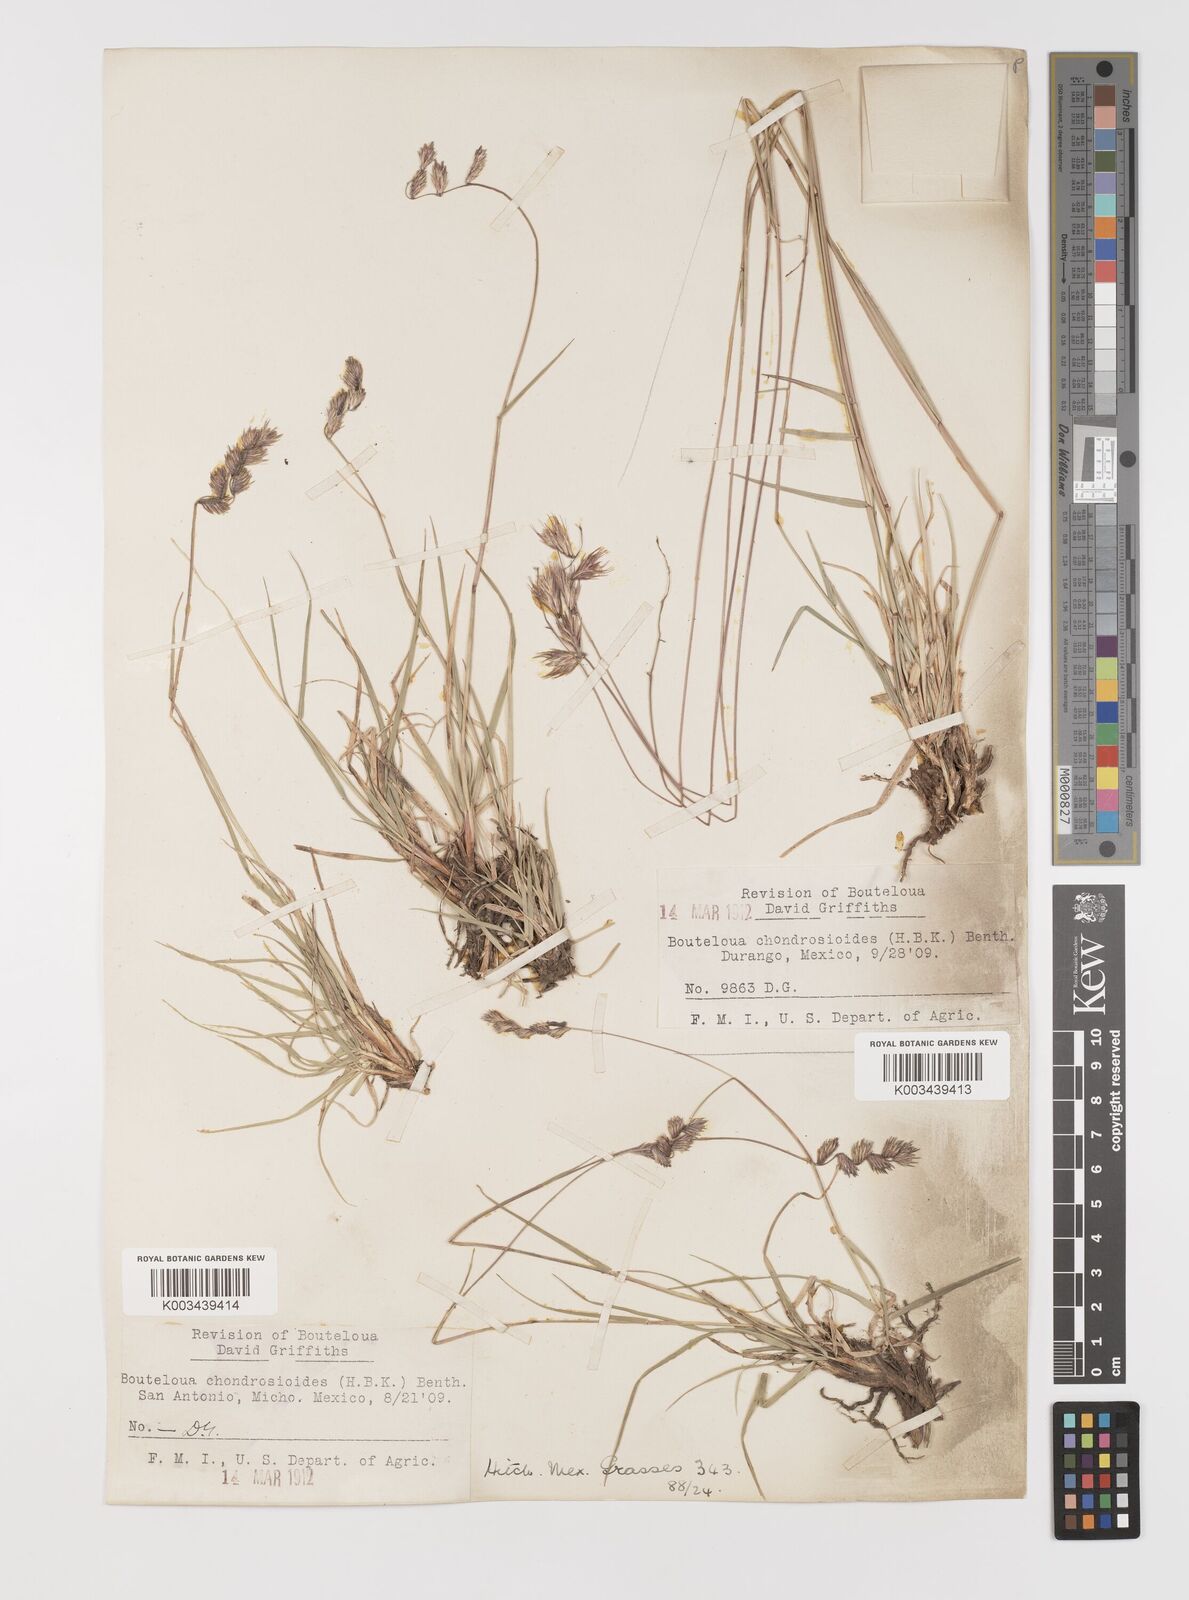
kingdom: Plantae
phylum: Tracheophyta
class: Liliopsida
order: Poales
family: Poaceae
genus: Bouteloua
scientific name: Bouteloua chondrosioides
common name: Sprucetop grama
